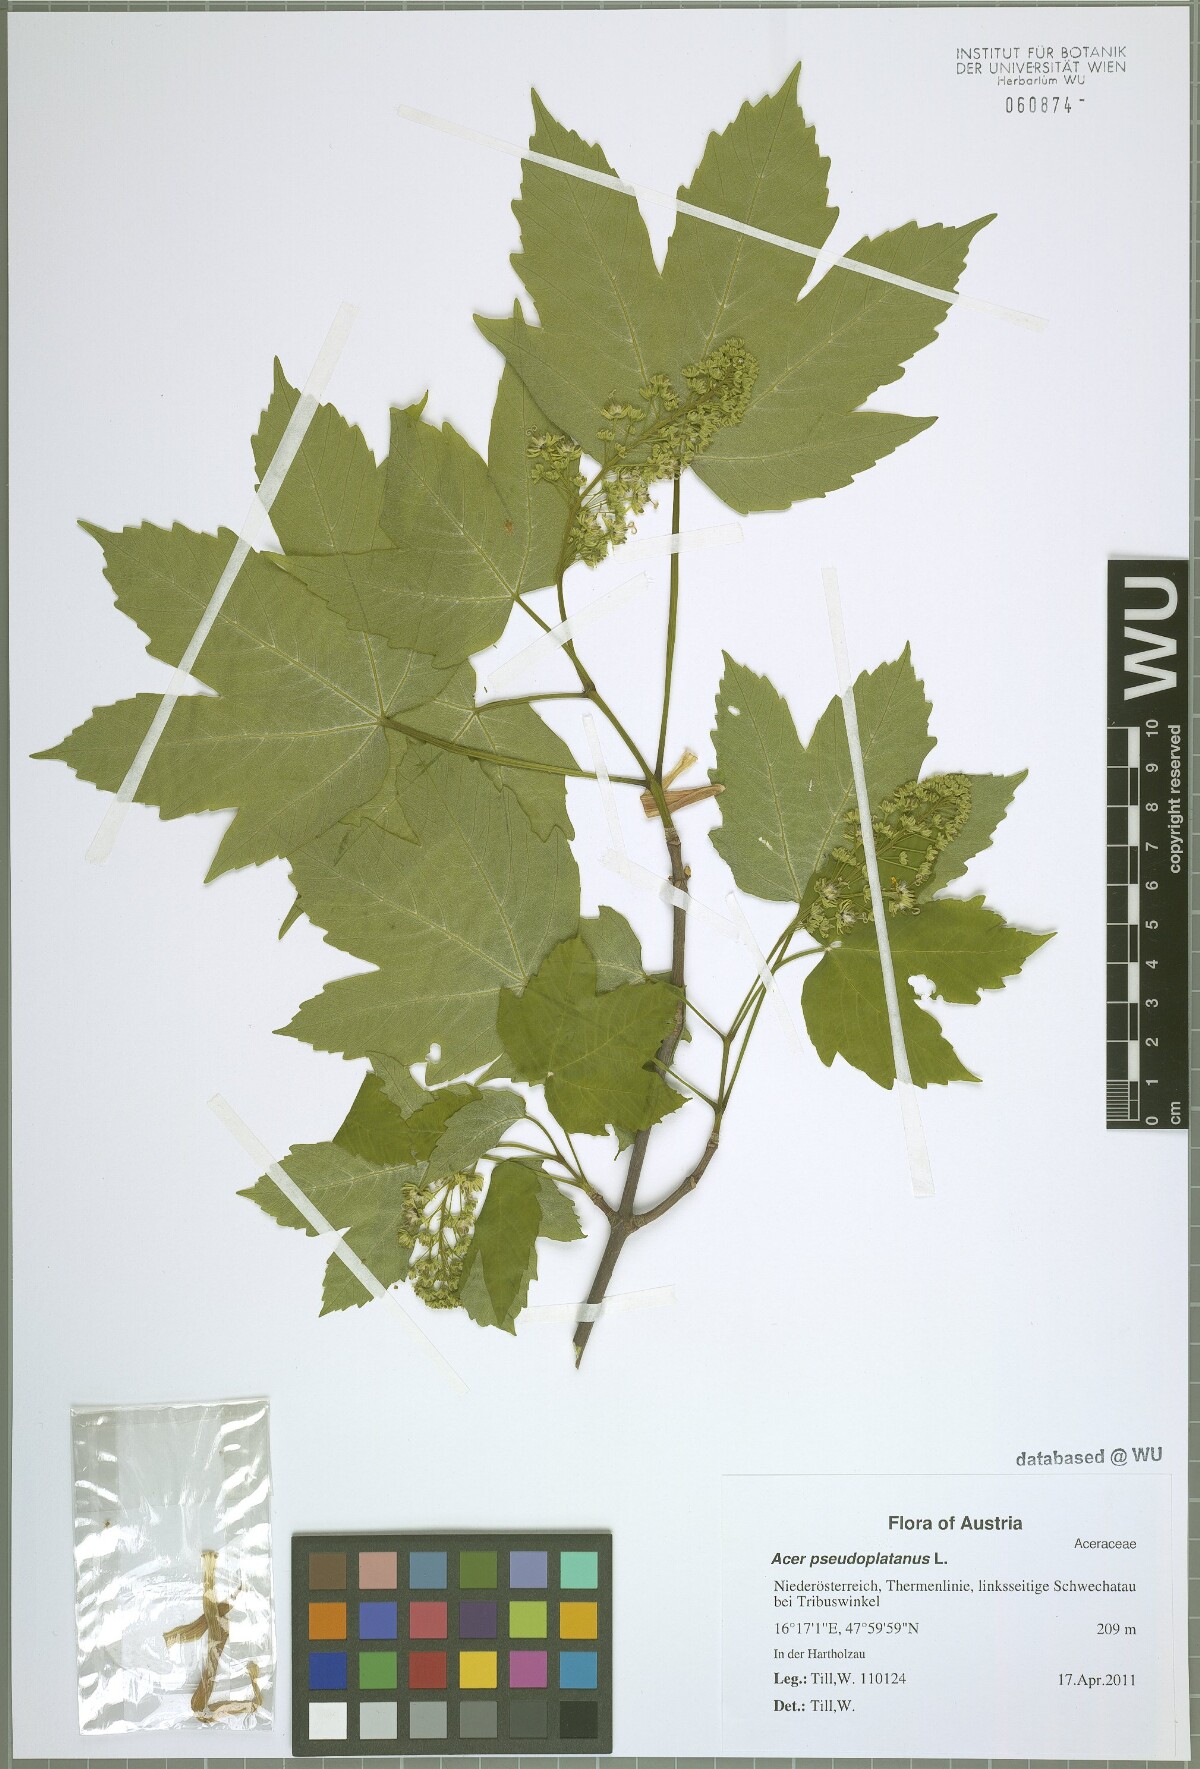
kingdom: Plantae
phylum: Tracheophyta
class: Magnoliopsida
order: Sapindales
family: Sapindaceae
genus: Acer
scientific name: Acer pseudoplatanus
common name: Sycamore
